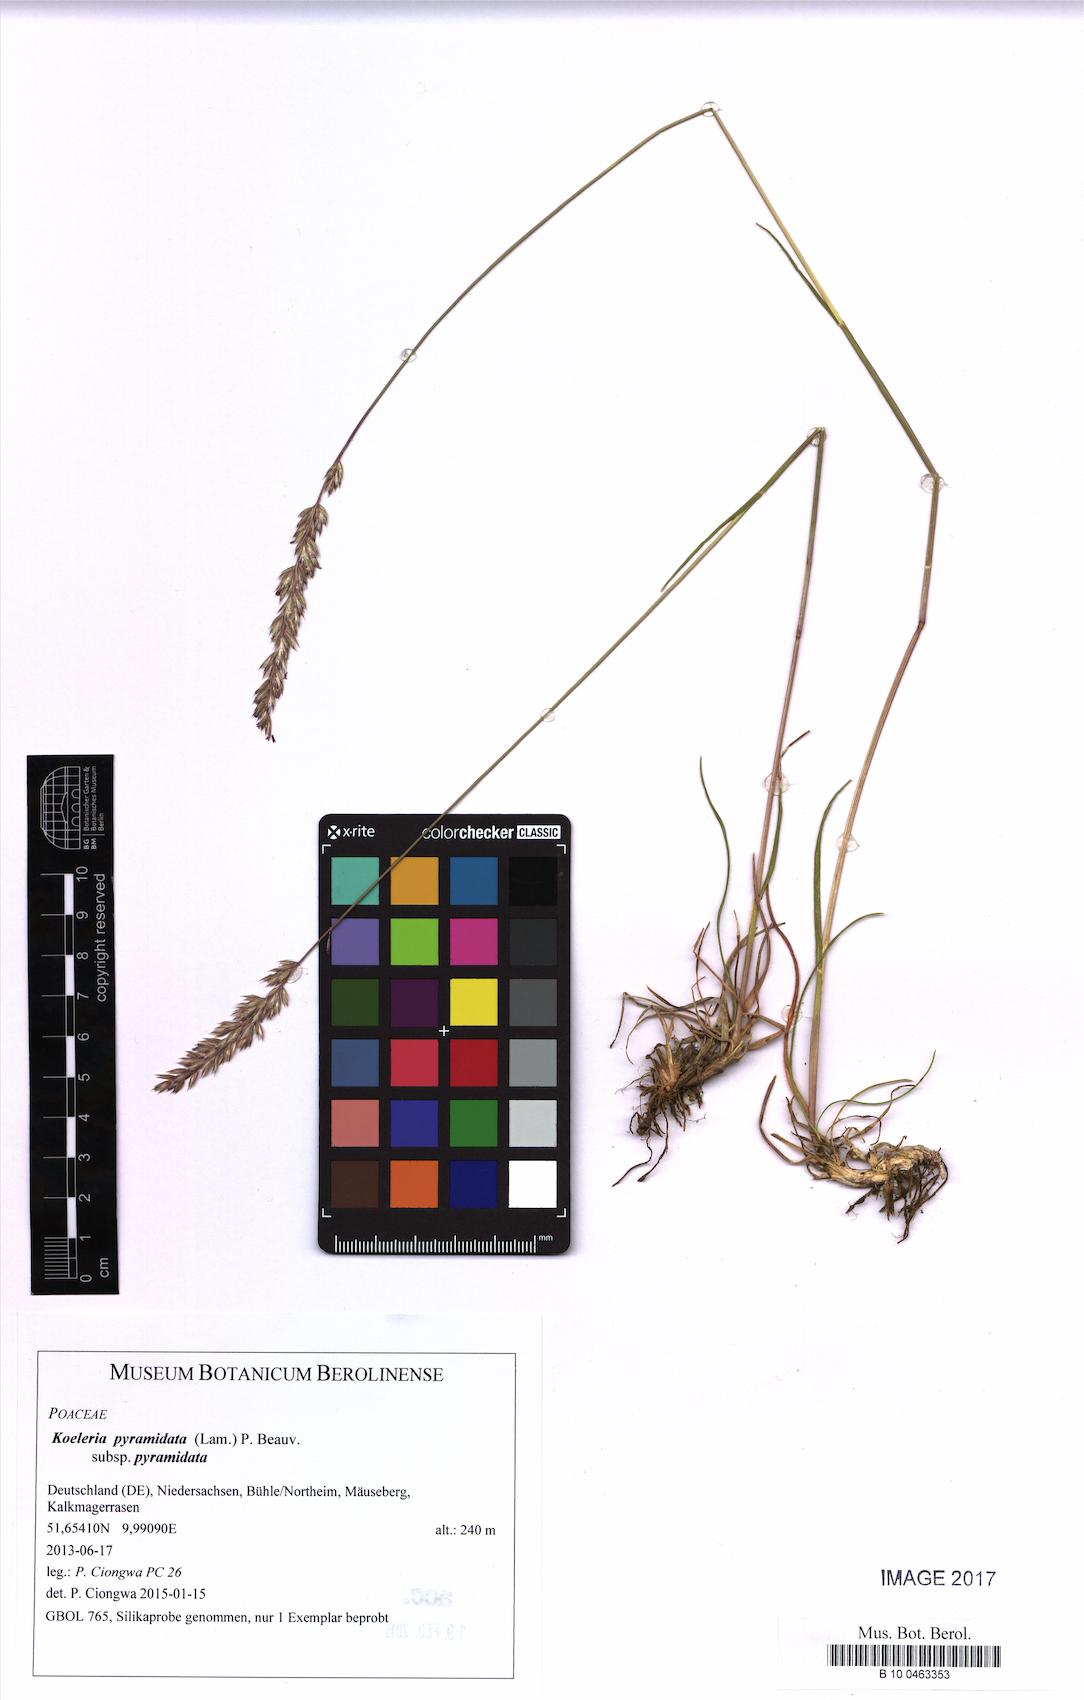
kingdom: Plantae
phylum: Tracheophyta
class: Liliopsida
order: Poales
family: Poaceae
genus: Koeleria
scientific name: Koeleria pyramidata
